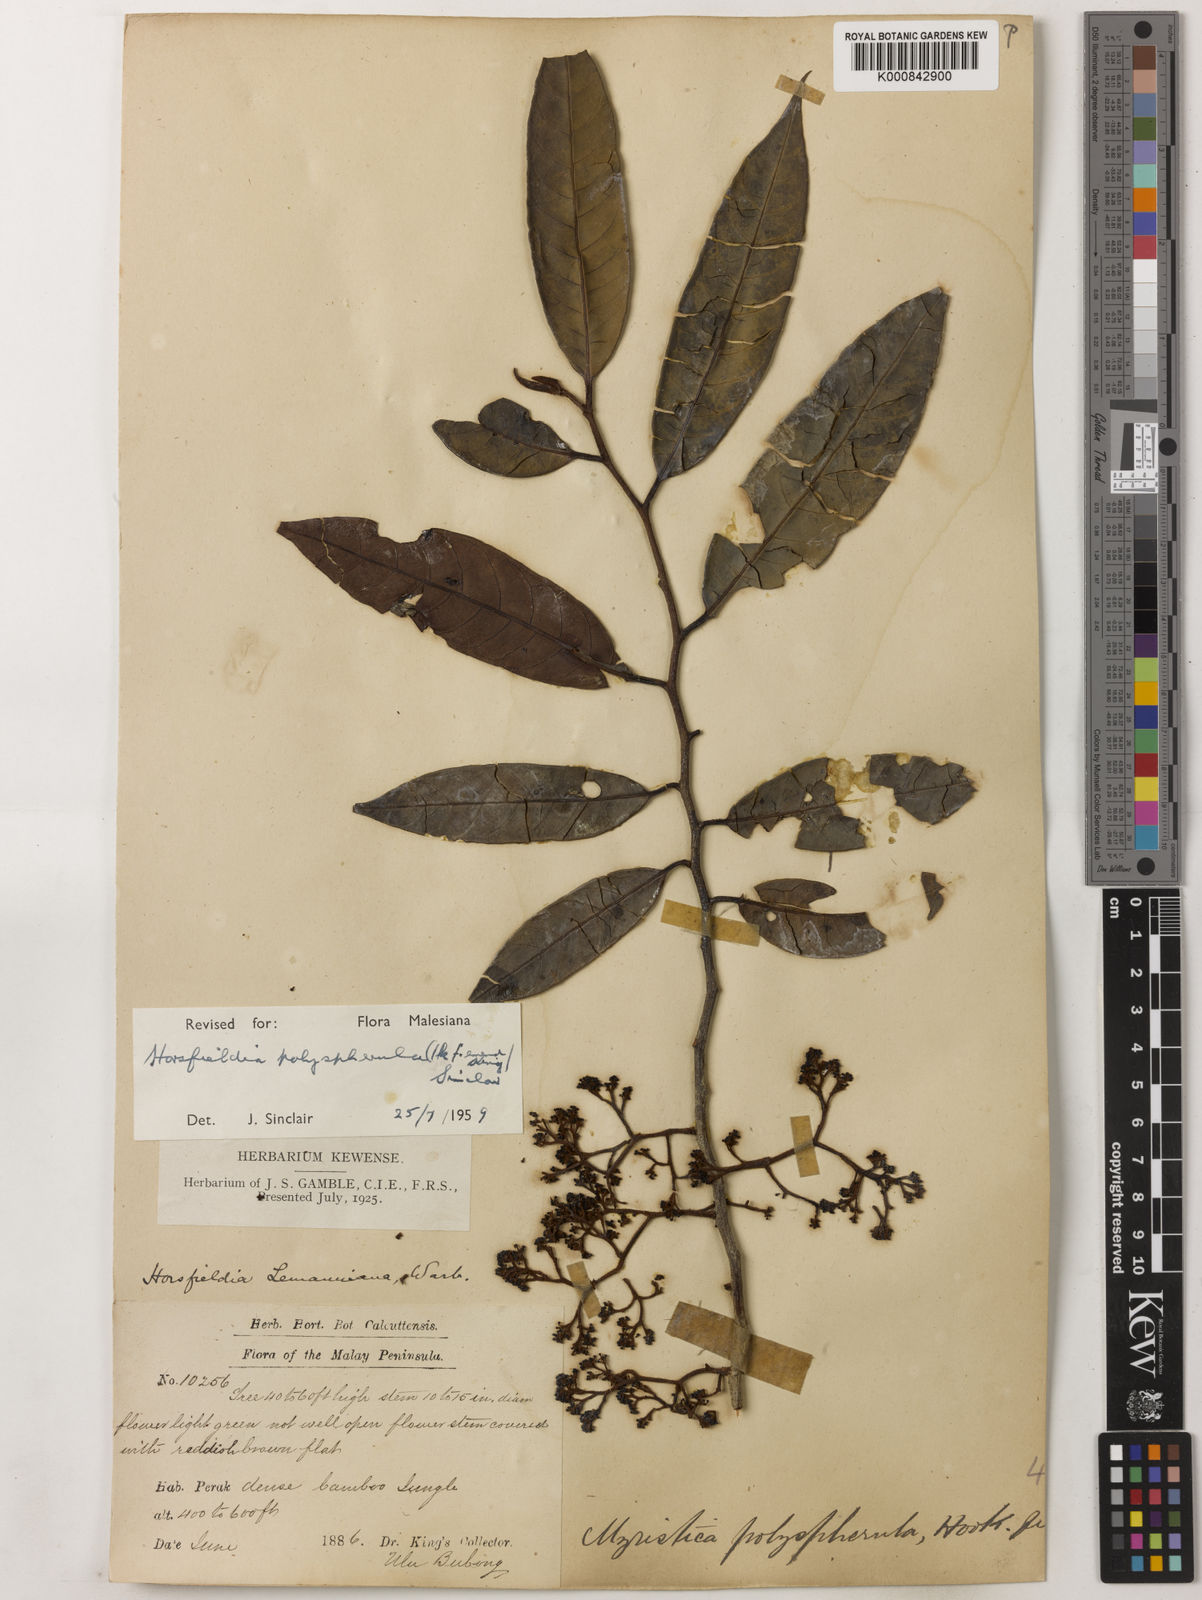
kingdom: Plantae
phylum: Tracheophyta
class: Magnoliopsida
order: Magnoliales
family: Myristicaceae
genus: Horsfieldia
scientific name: Horsfieldia
